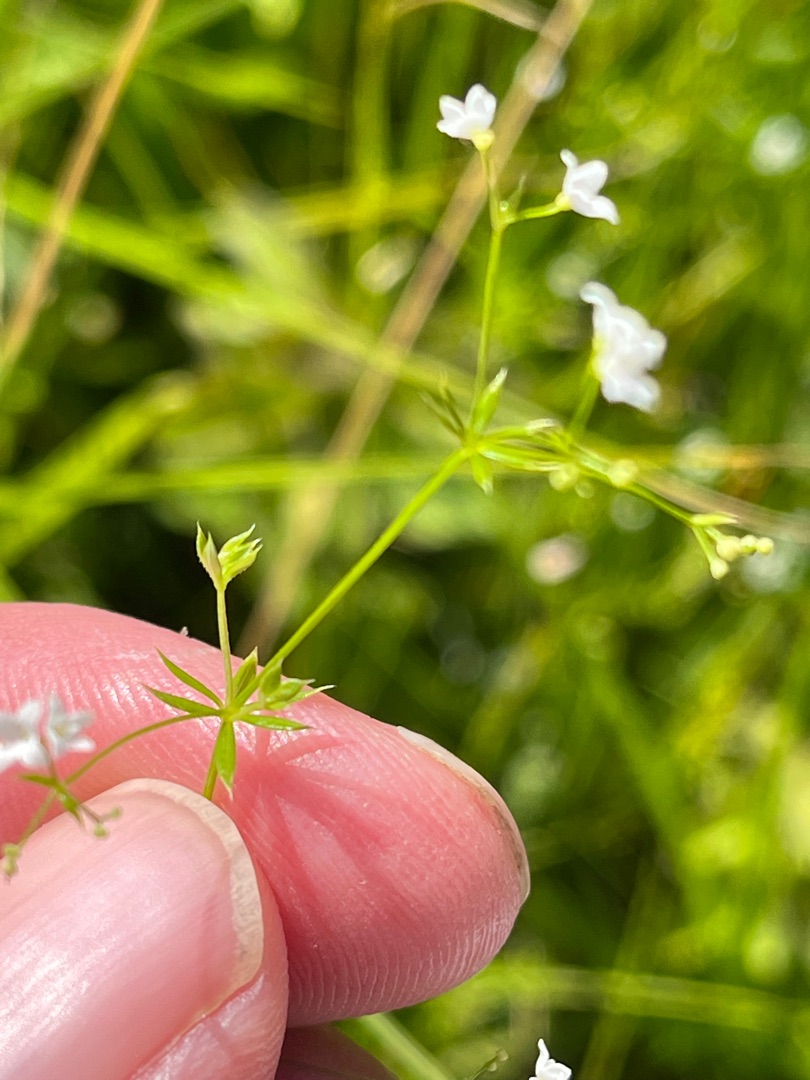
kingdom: Plantae
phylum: Tracheophyta
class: Magnoliopsida
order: Gentianales
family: Rubiaceae
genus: Galium
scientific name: Galium uliginosum
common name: Sump-snerre
